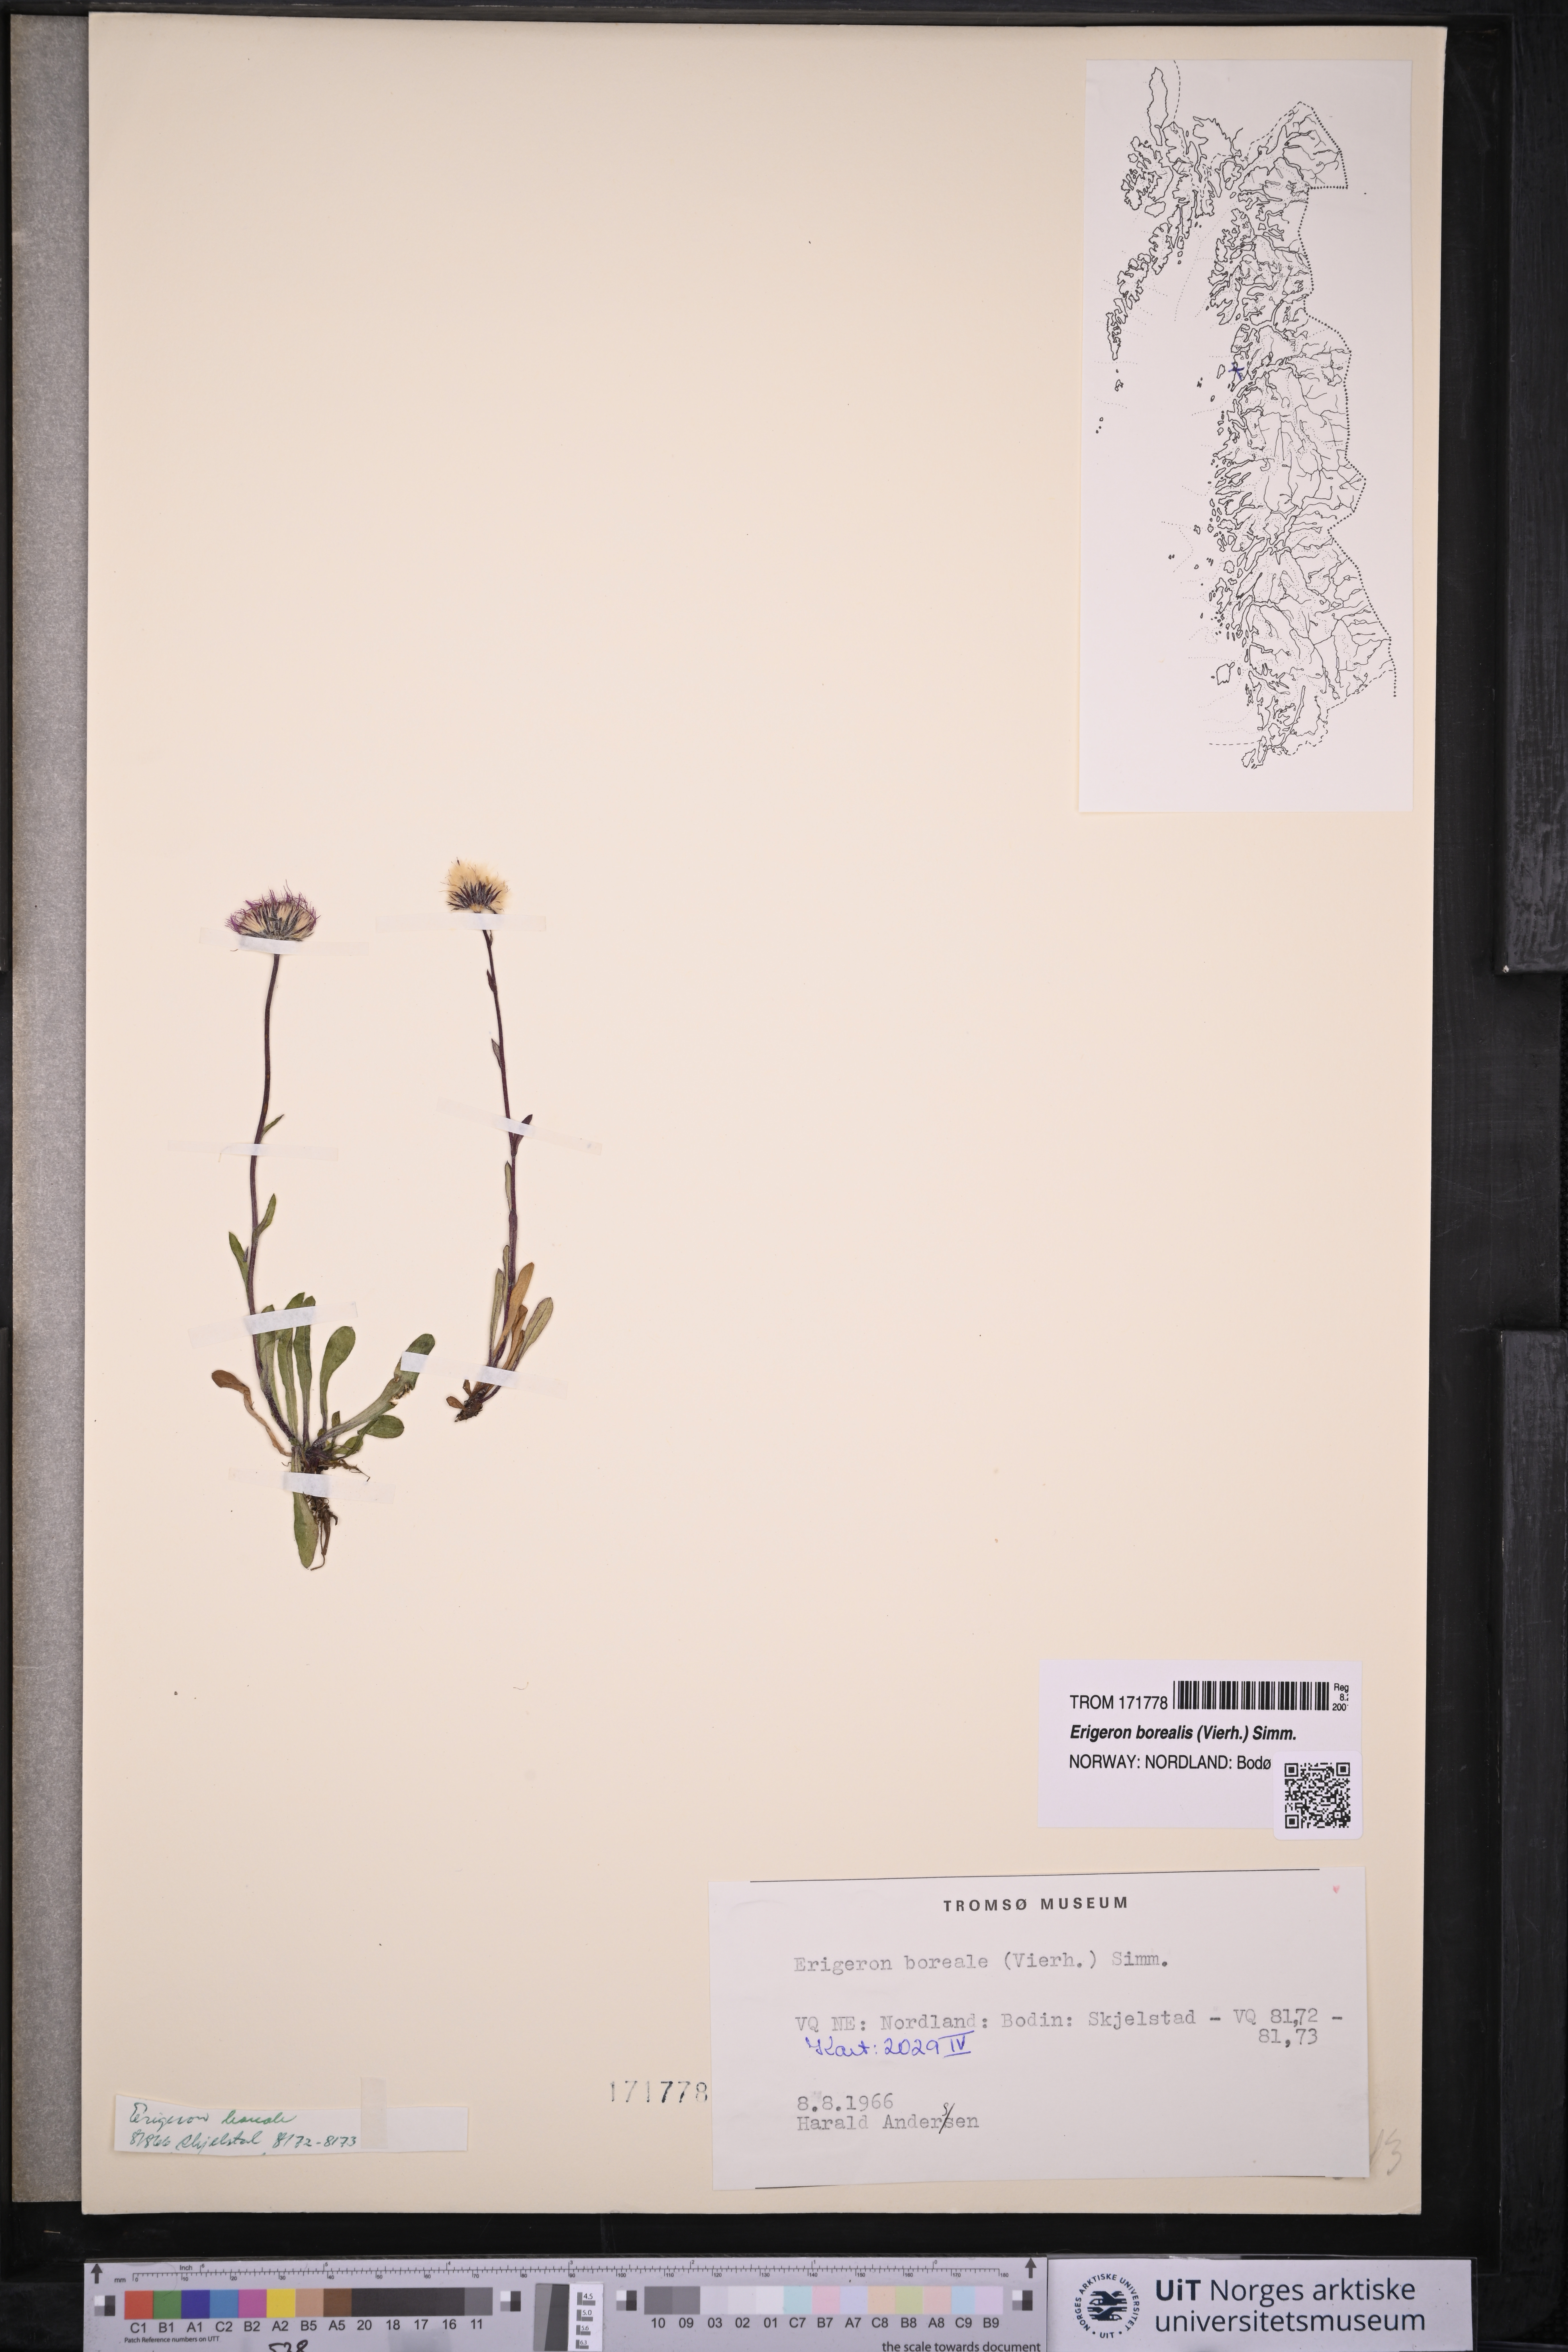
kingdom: Plantae
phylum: Tracheophyta
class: Magnoliopsida
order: Asterales
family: Asteraceae
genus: Erigeron
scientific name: Erigeron borealis
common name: Alpine fleabane
